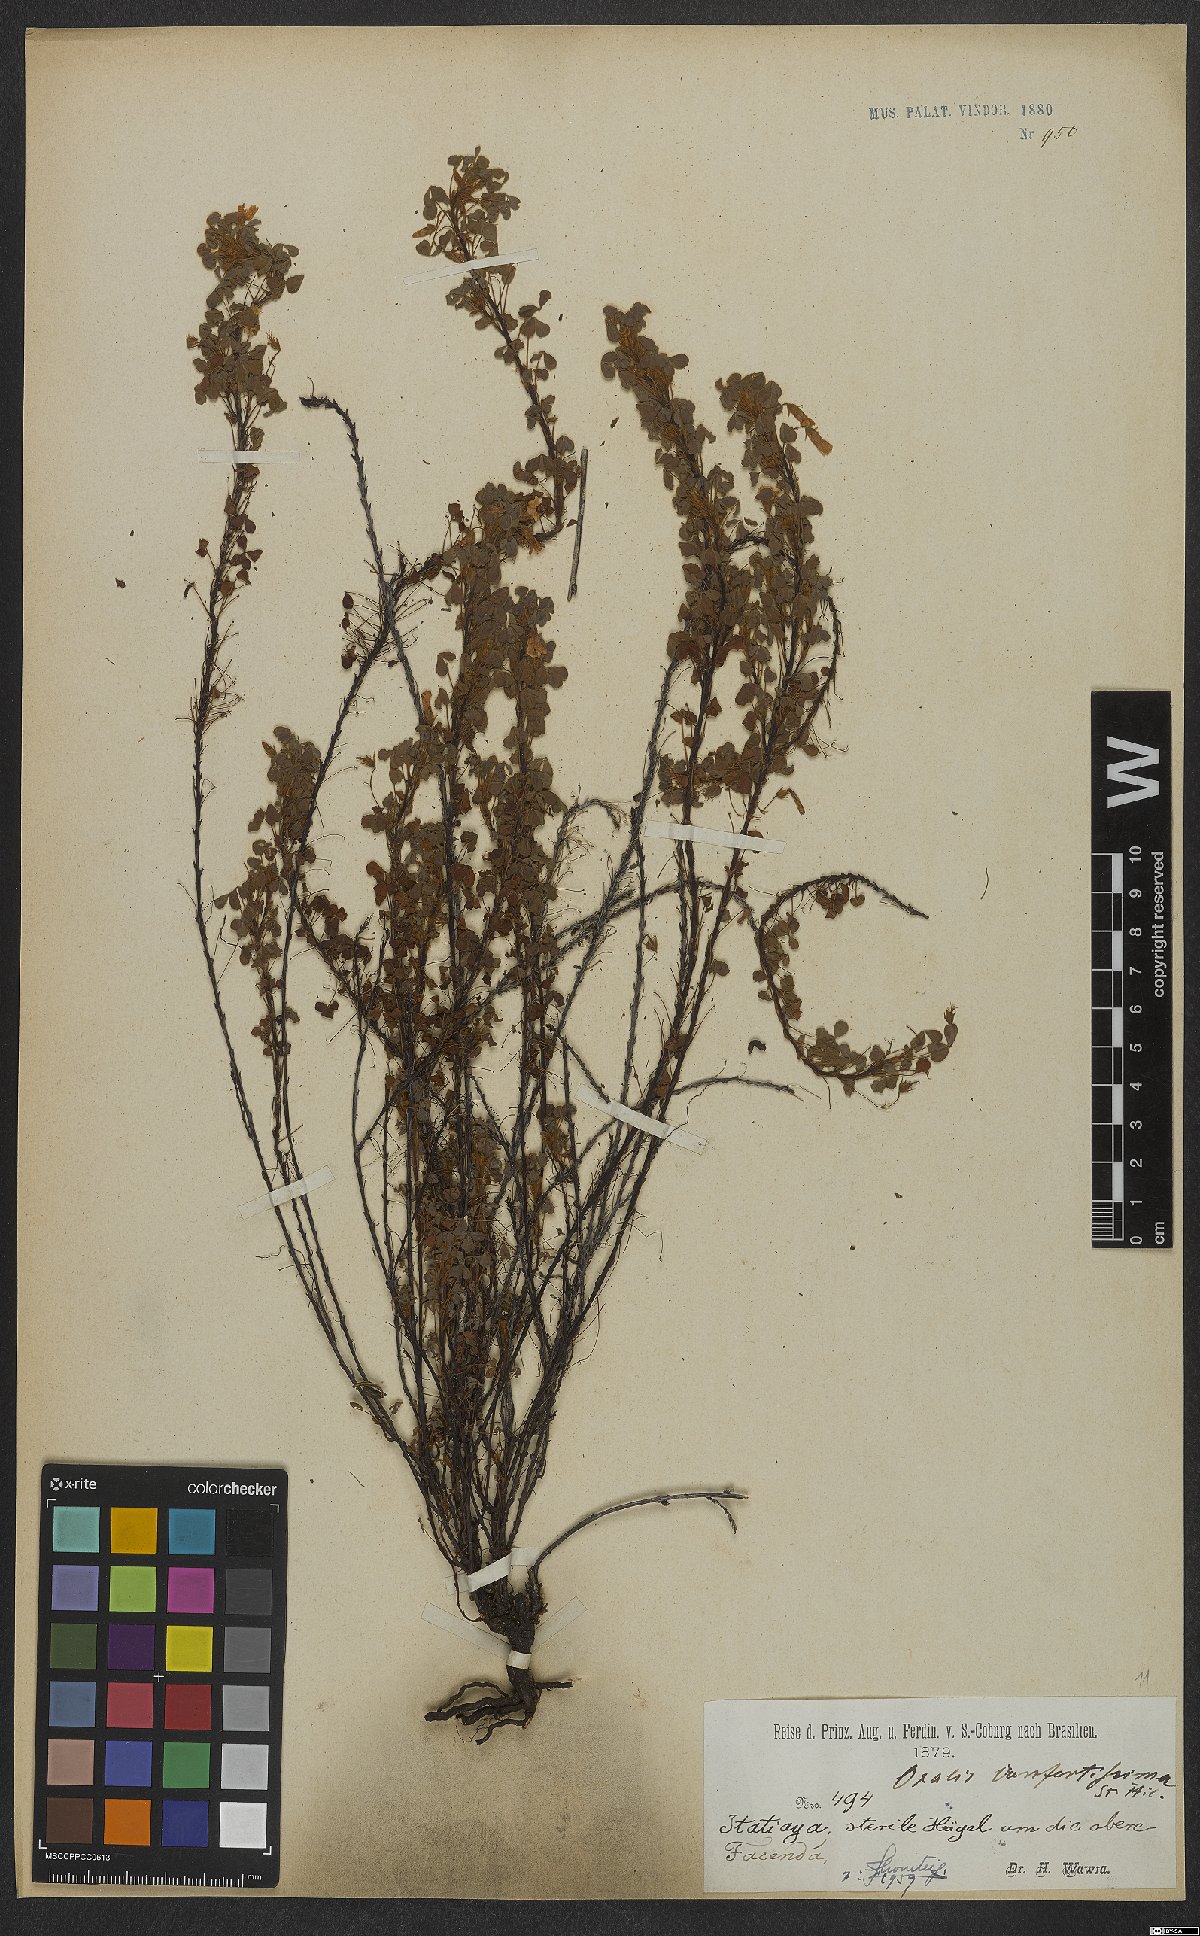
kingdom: Plantae
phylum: Tracheophyta
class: Magnoliopsida
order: Oxalidales
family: Oxalidaceae
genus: Oxalis
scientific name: Oxalis confertissima
